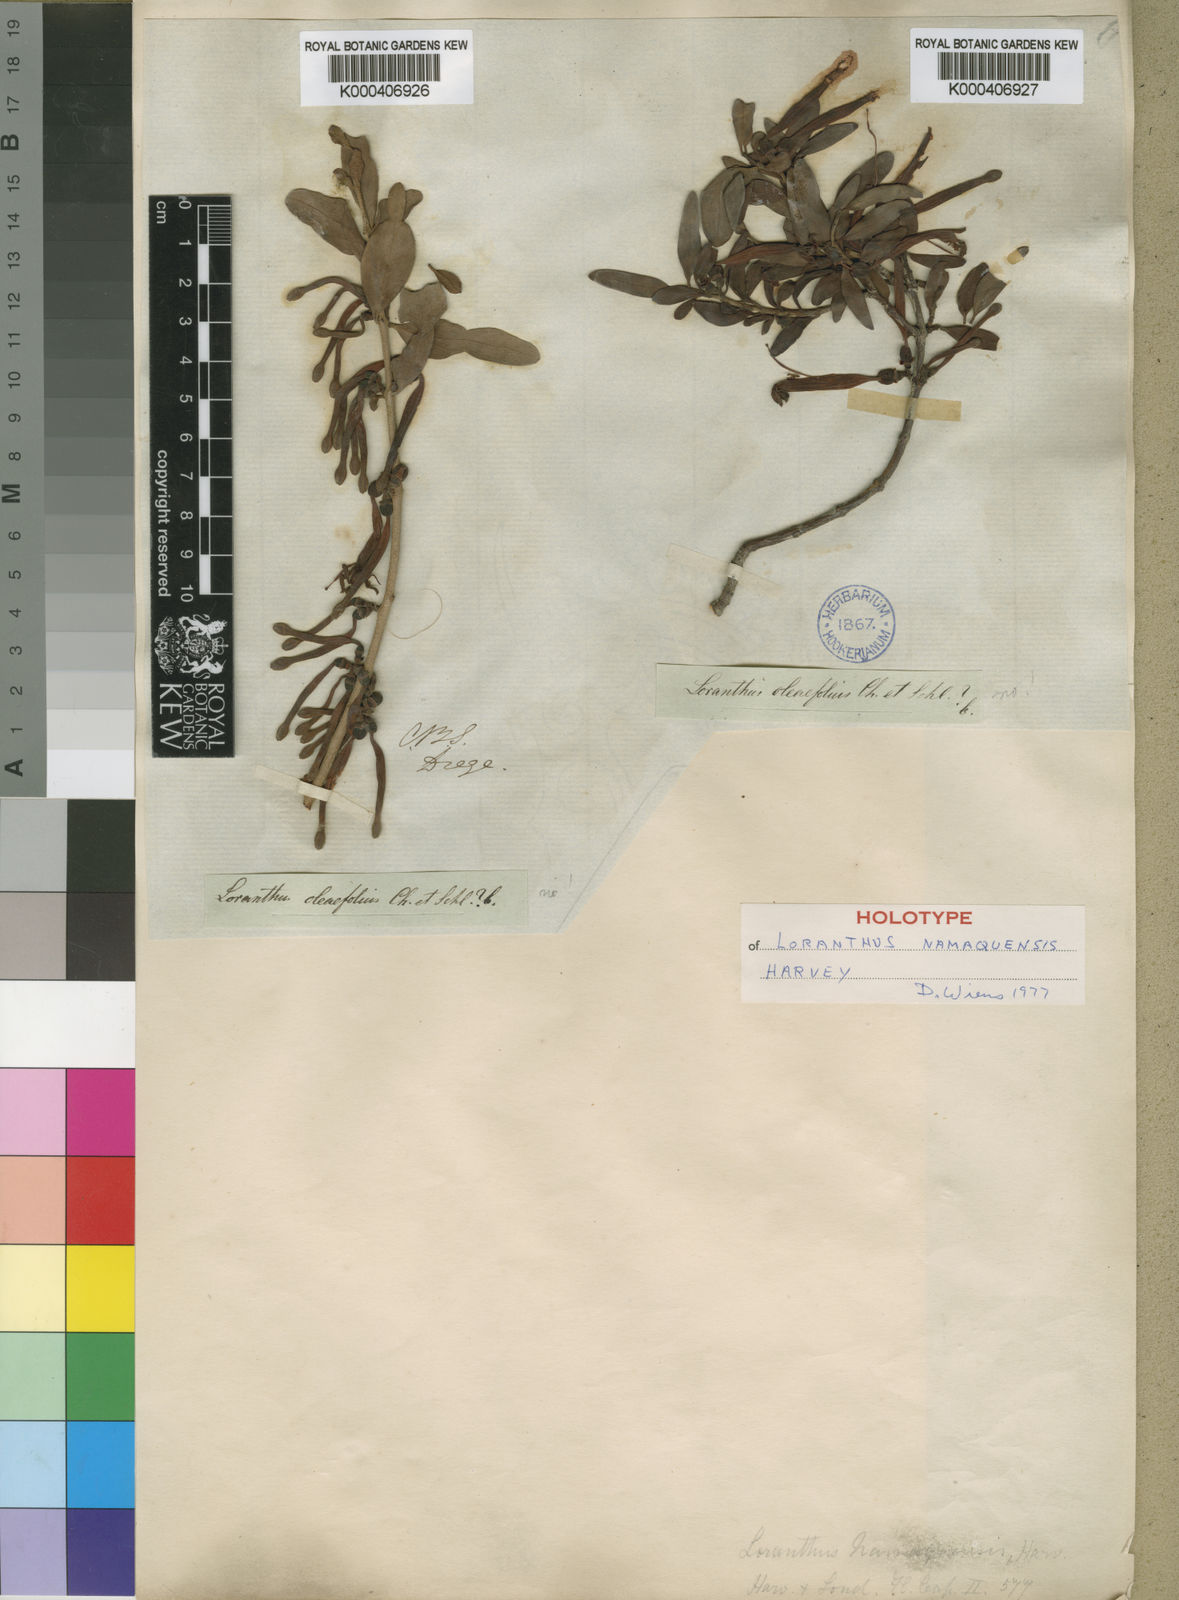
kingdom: Plantae
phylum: Tracheophyta
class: Magnoliopsida
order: Santalales
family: Loranthaceae
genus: Tapinanthus
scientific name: Tapinanthus oleifolius
